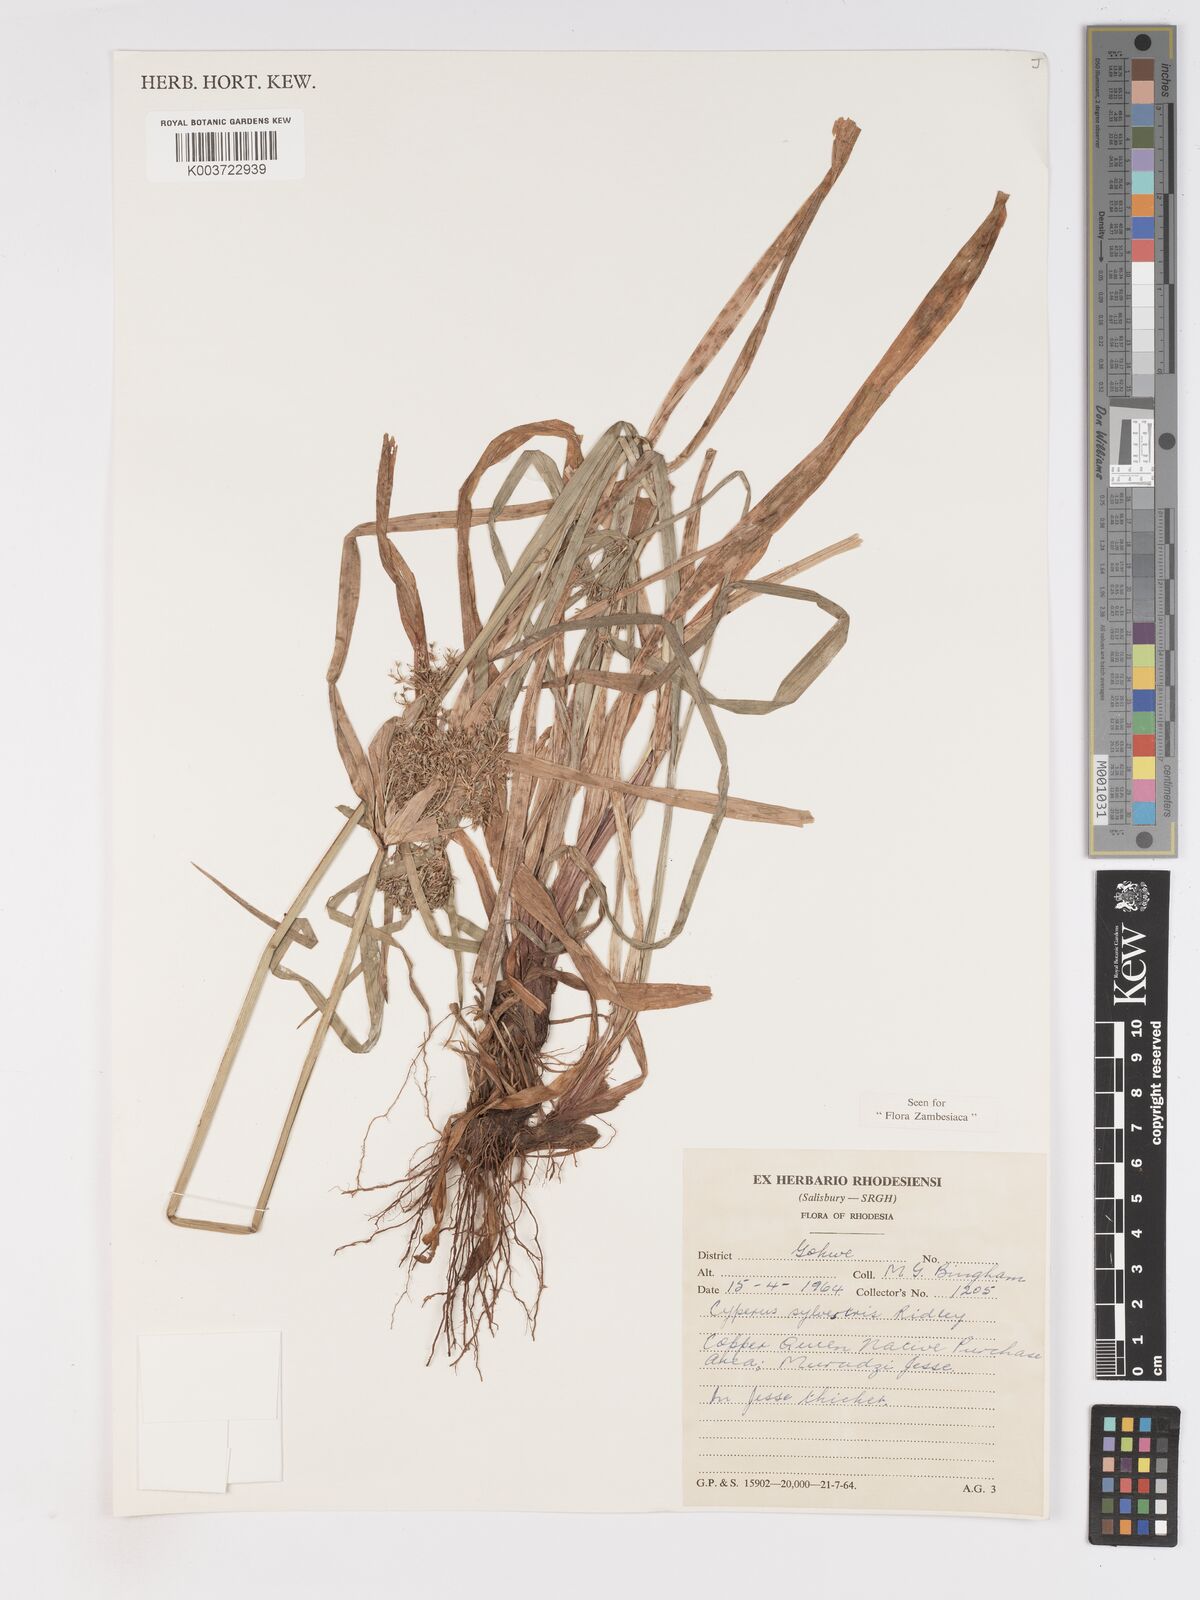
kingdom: Plantae
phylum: Tracheophyta
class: Liliopsida
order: Poales
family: Cyperaceae
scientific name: Cyperaceae
